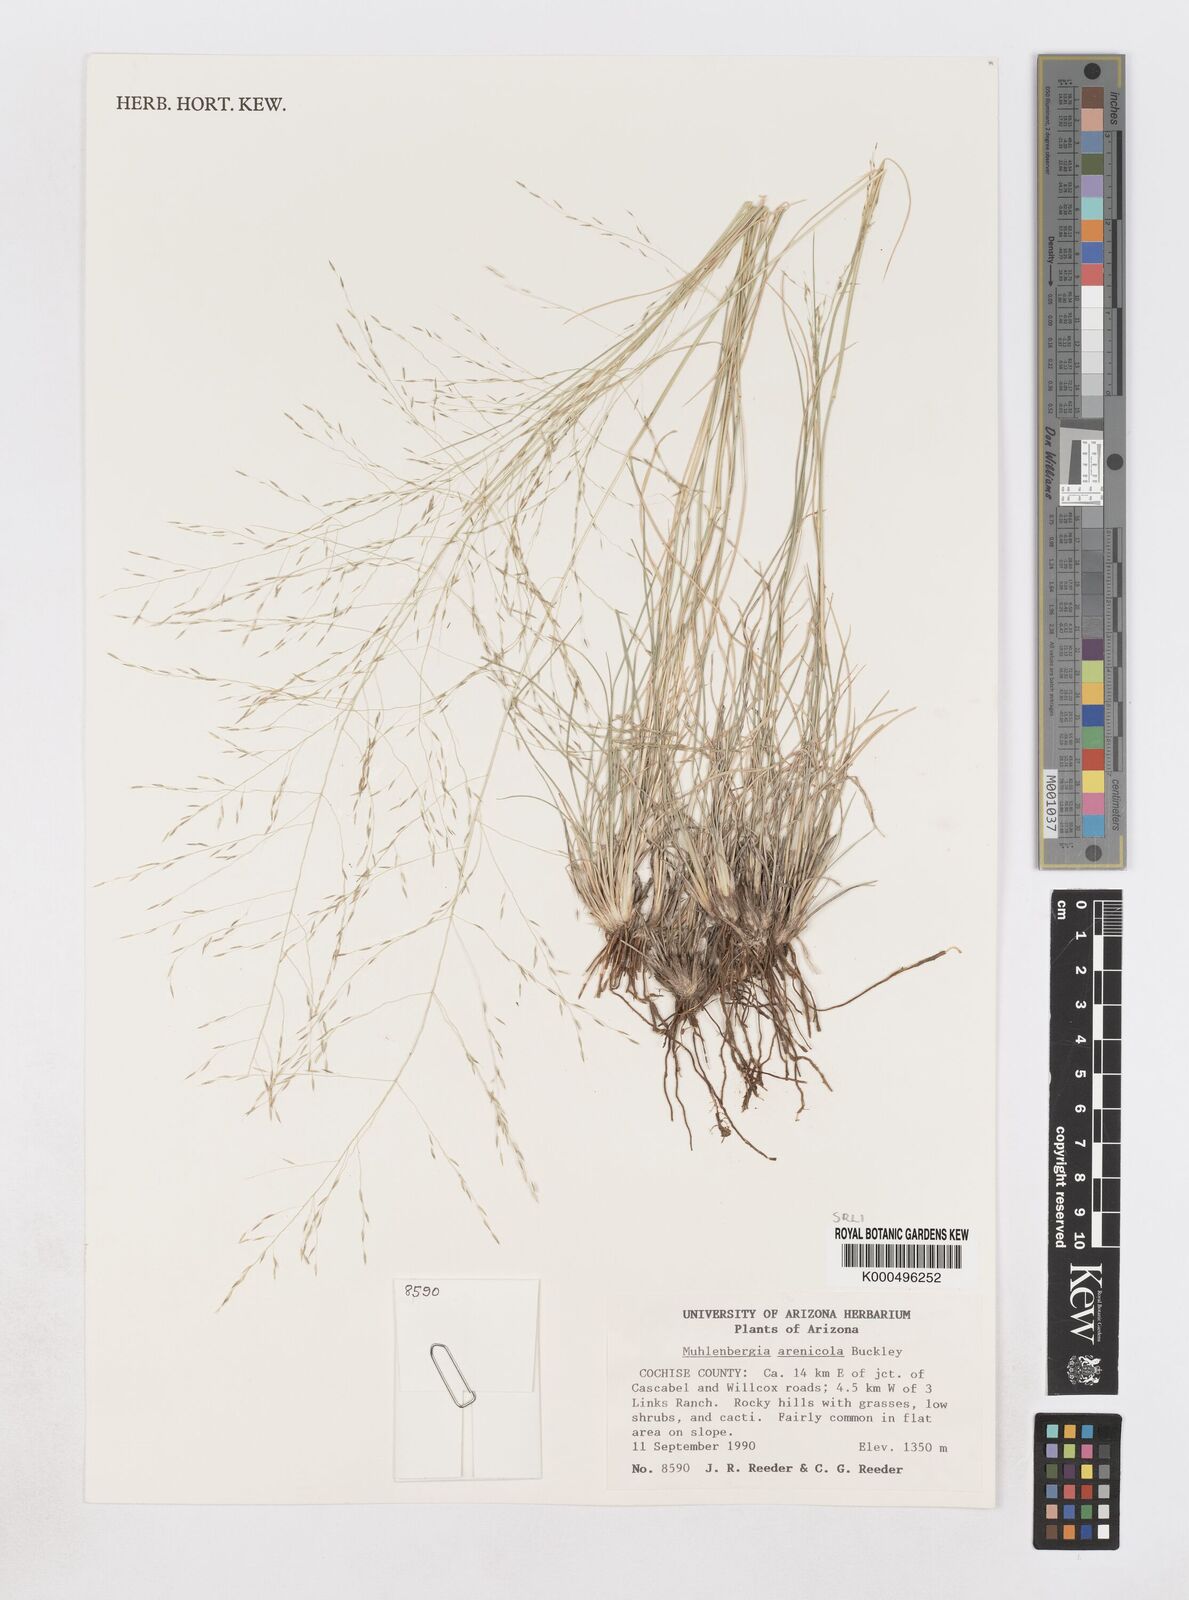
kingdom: Plantae
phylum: Tracheophyta
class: Liliopsida
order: Poales
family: Poaceae
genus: Muhlenbergia
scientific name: Muhlenbergia arenicola
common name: Sand muhly
